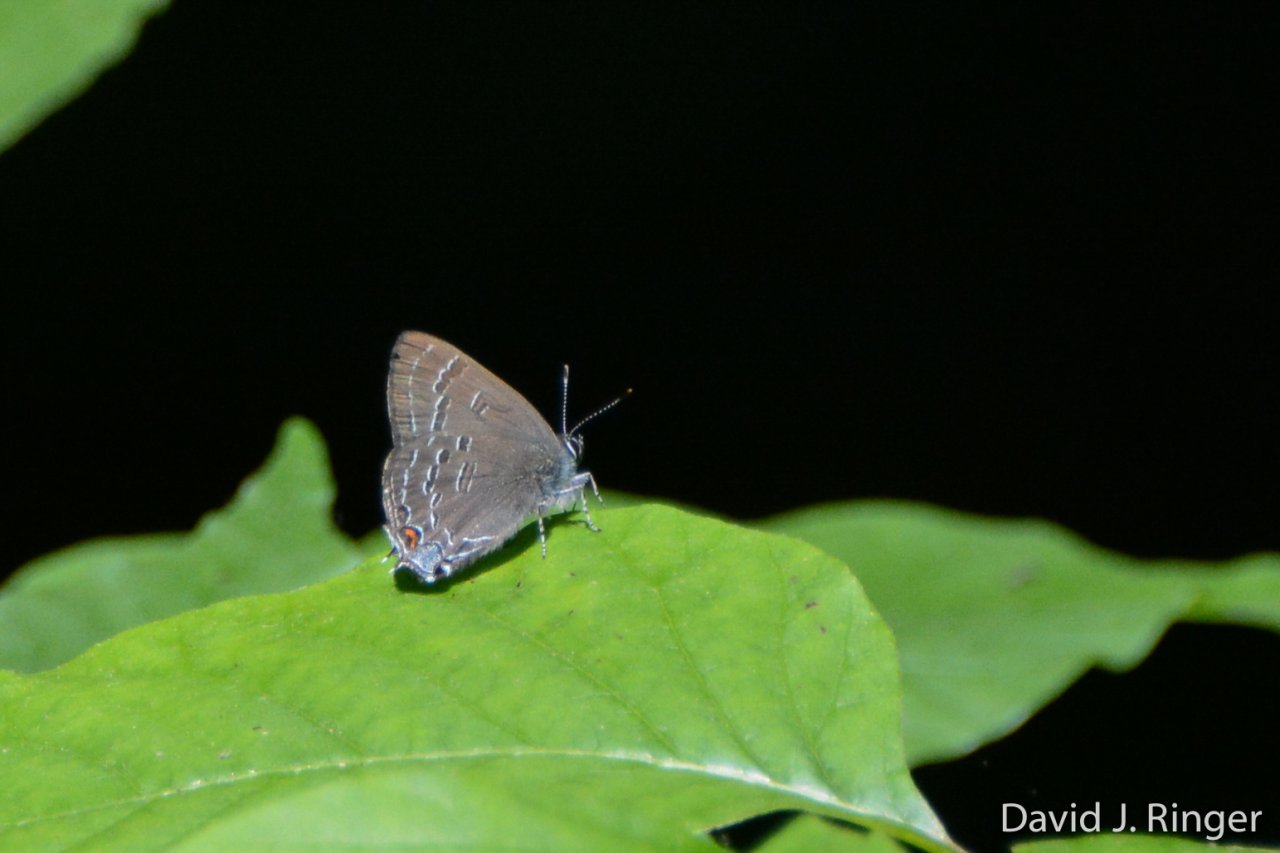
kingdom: Animalia
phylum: Arthropoda
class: Insecta
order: Lepidoptera
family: Lycaenidae
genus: Satyrium
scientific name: Satyrium calanus
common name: Banded Hairstreak
